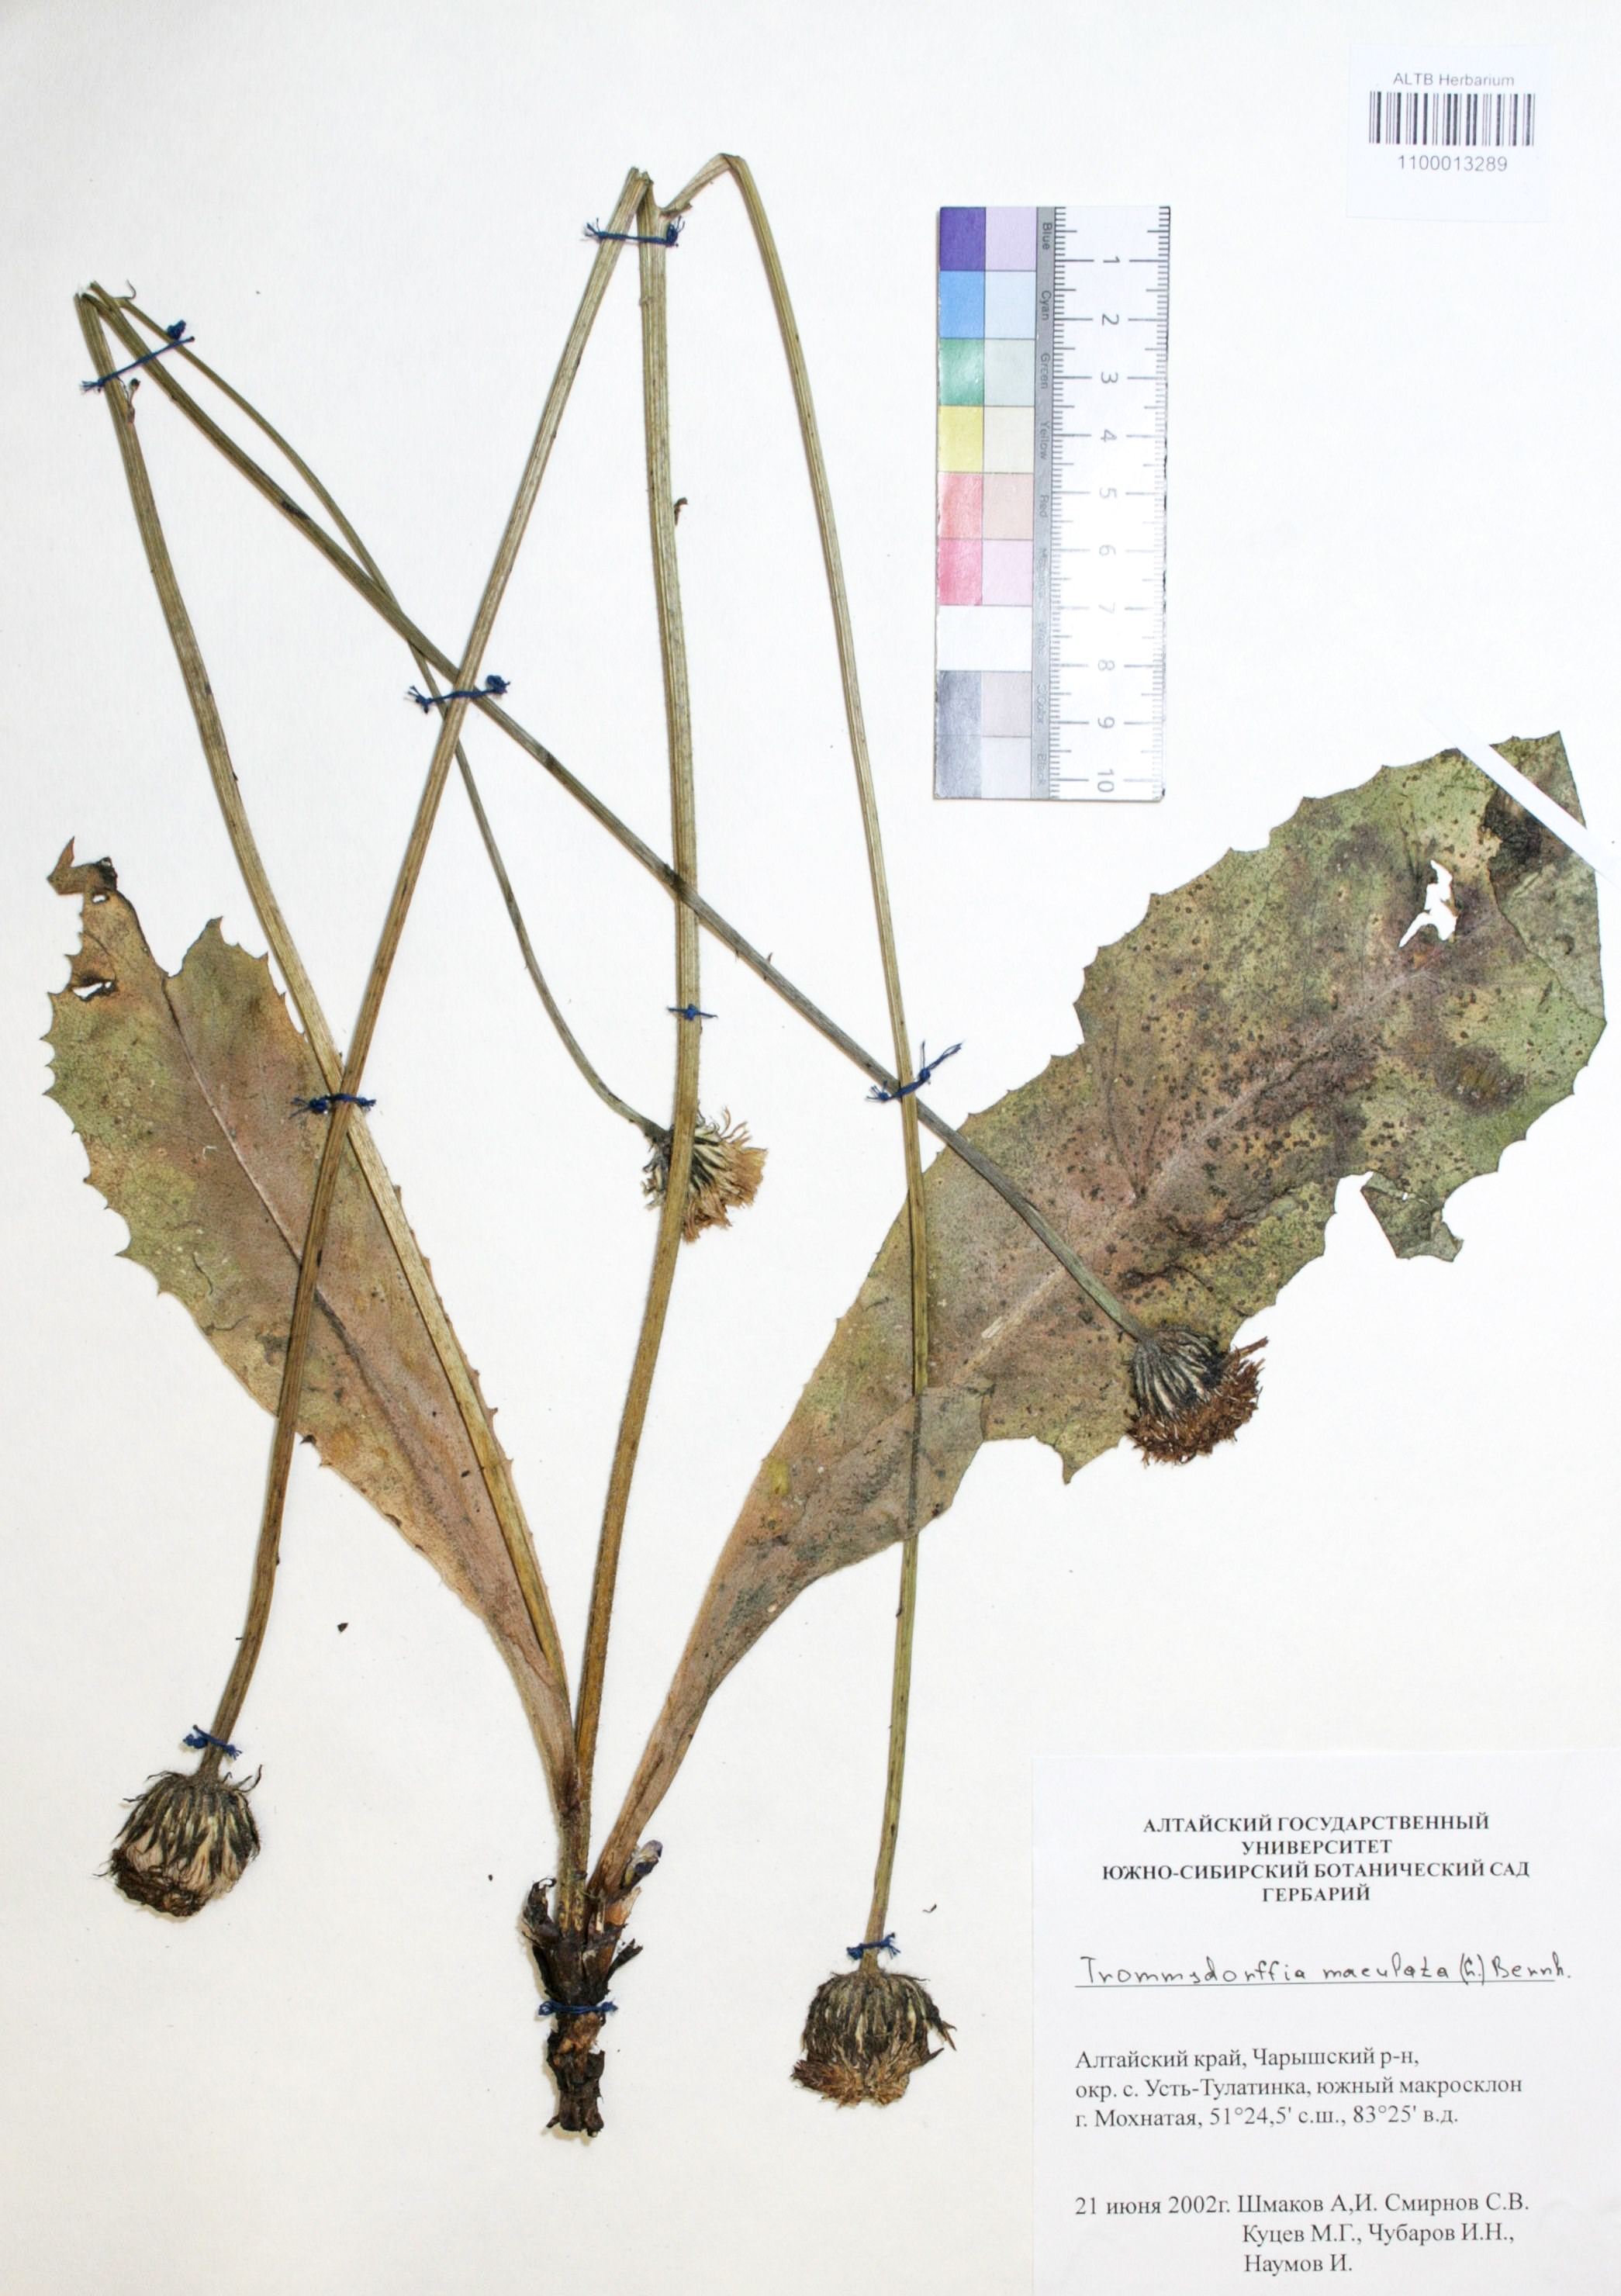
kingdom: Plantae
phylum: Tracheophyta
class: Magnoliopsida
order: Asterales
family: Asteraceae
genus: Trommsdorffia
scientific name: Trommsdorffia maculata
